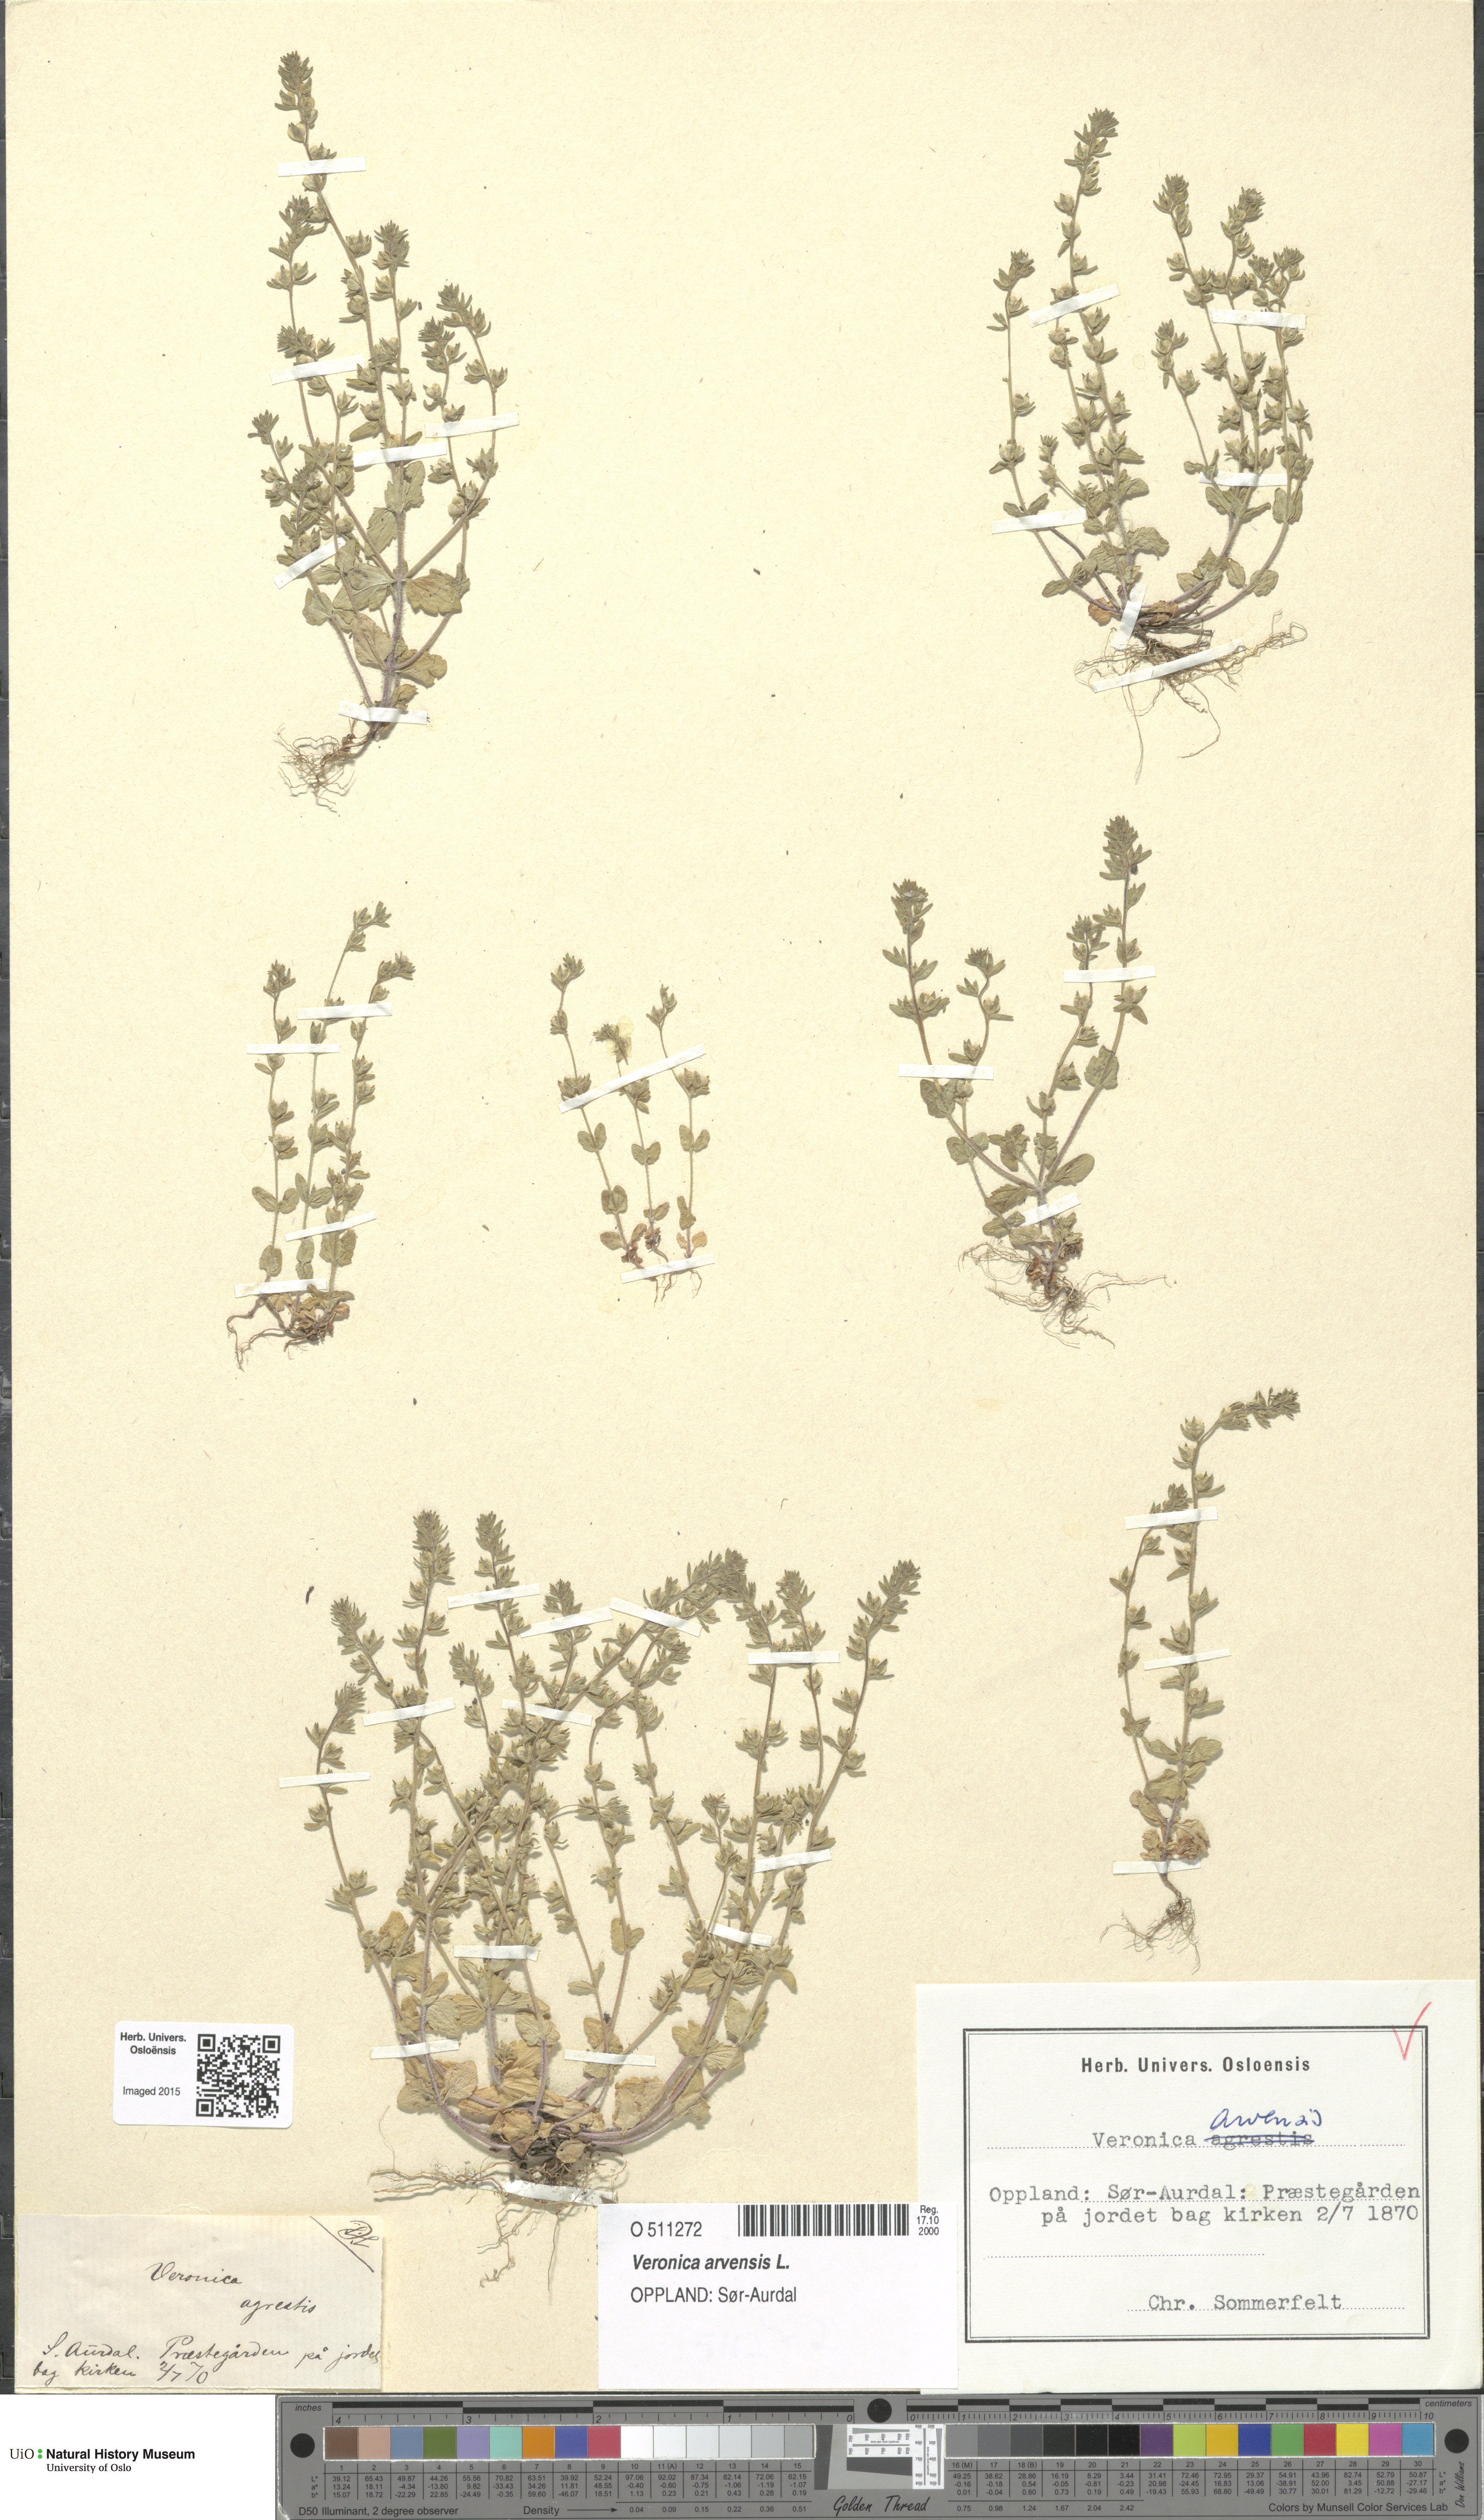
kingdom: Plantae
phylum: Tracheophyta
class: Magnoliopsida
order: Lamiales
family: Plantaginaceae
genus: Veronica
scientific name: Veronica arvensis
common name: Corn speedwell
